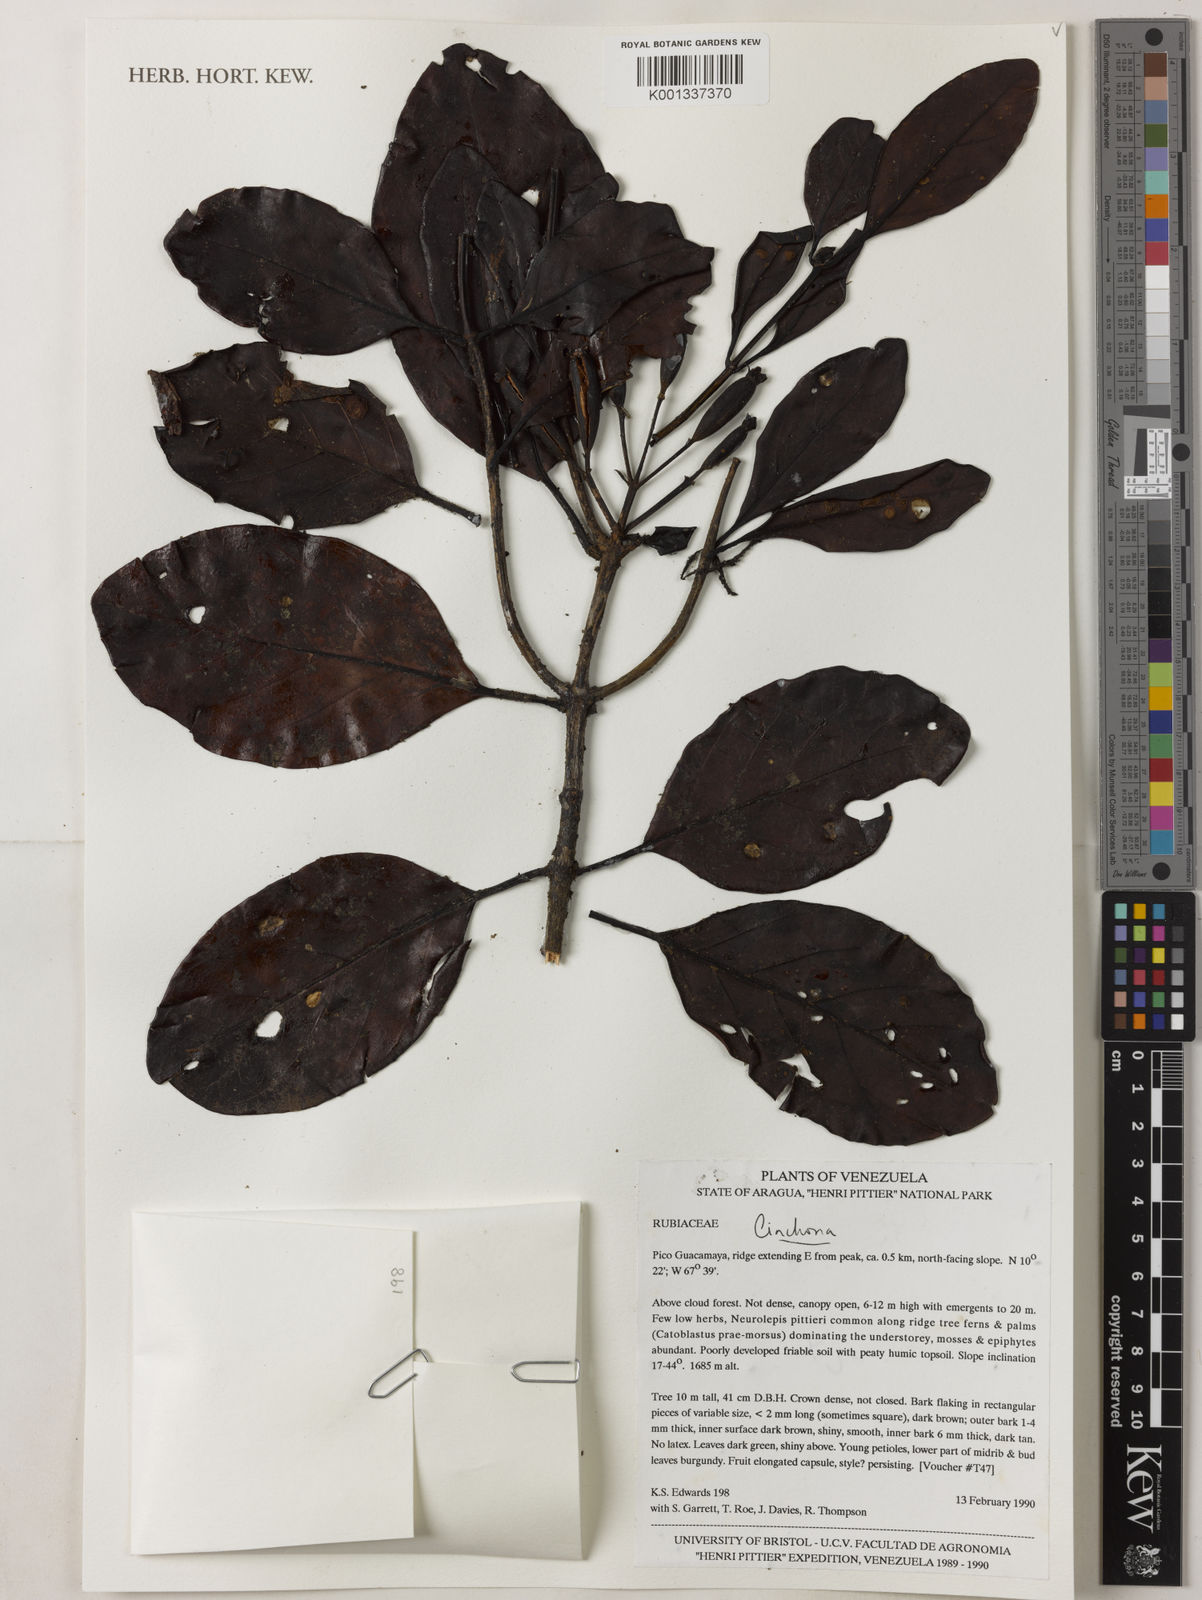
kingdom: Plantae
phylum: Tracheophyta
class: Magnoliopsida
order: Gentianales
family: Rubiaceae
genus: Cinchona
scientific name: Cinchona
